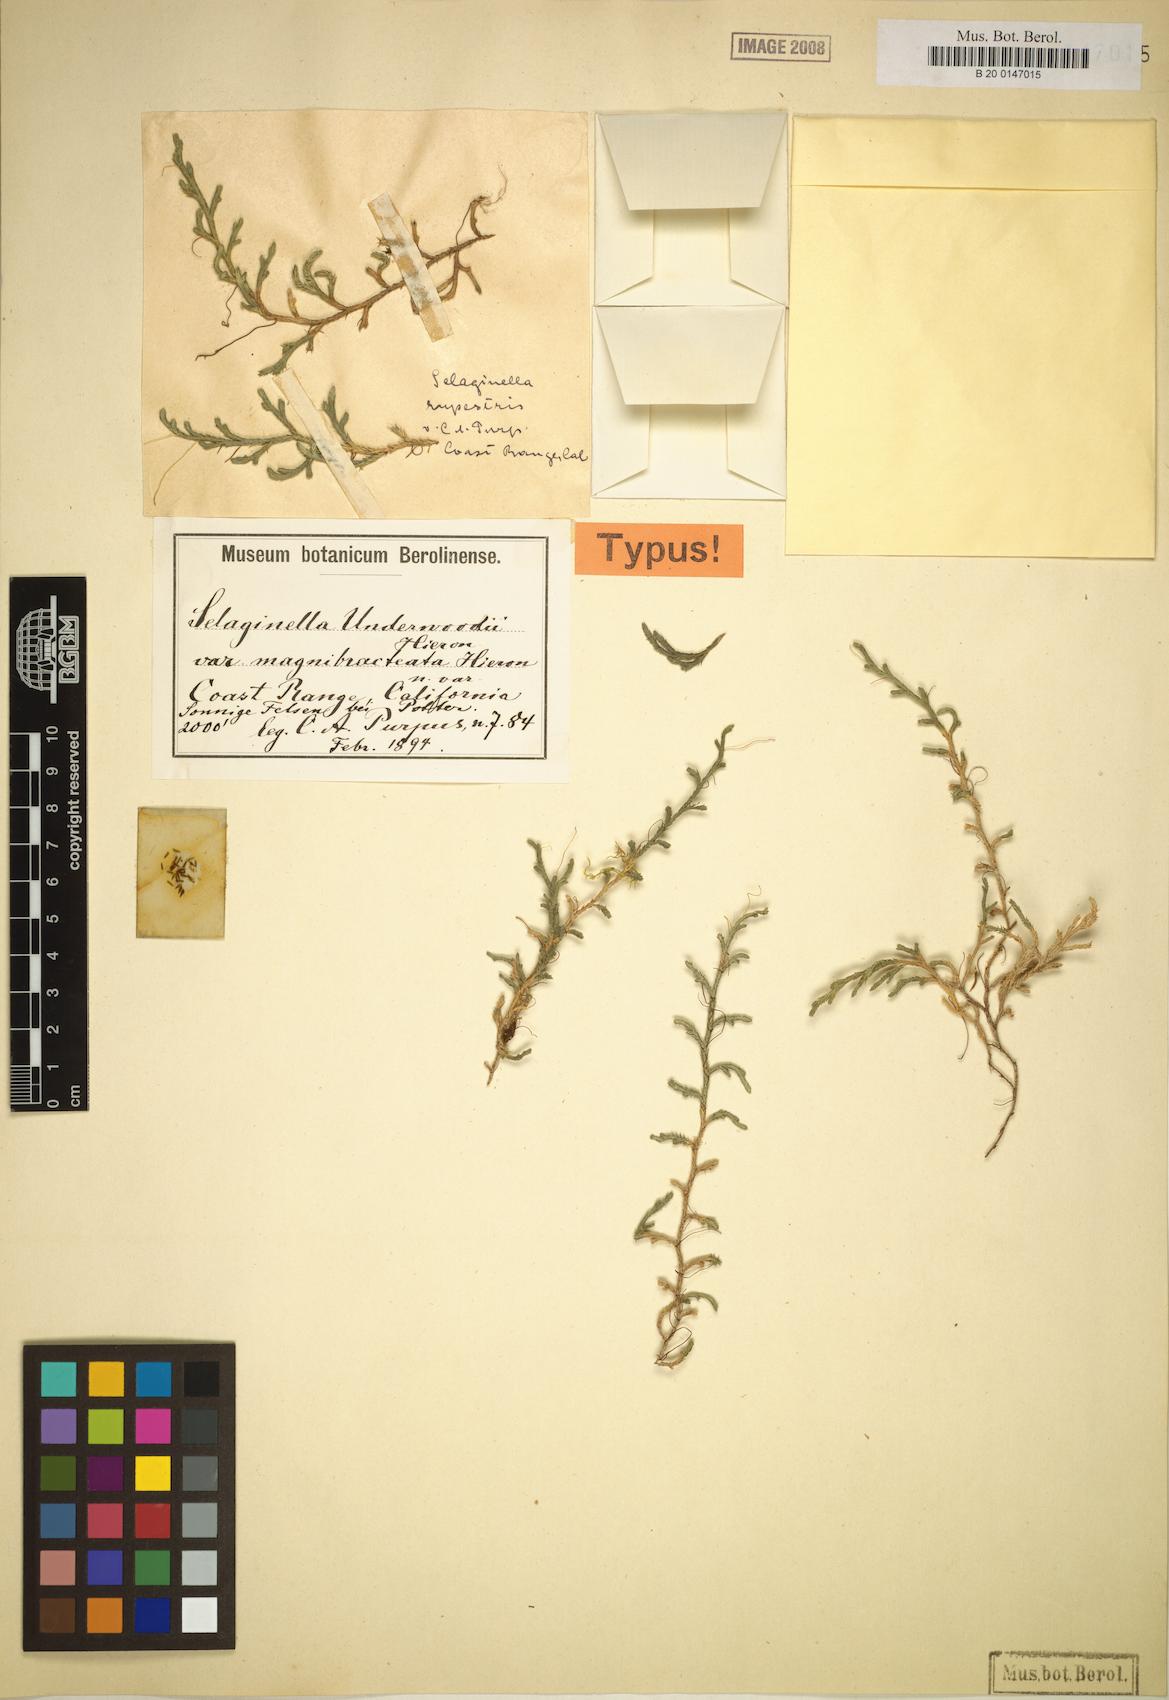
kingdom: Plantae
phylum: Tracheophyta
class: Lycopodiopsida
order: Selaginellales
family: Selaginellaceae
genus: Selaginella
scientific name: Selaginella underwoodii
